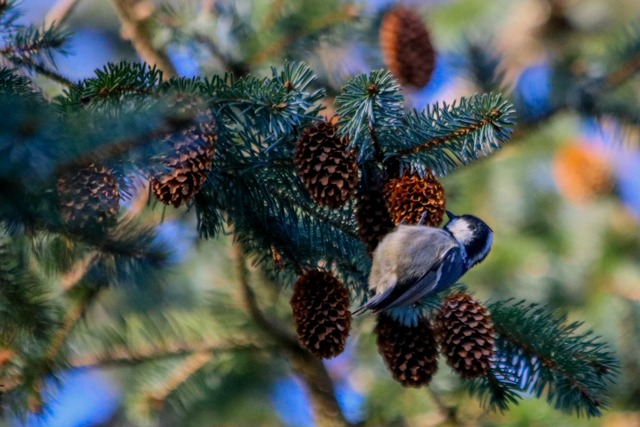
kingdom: Animalia
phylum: Chordata
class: Aves
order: Passeriformes
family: Paridae
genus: Periparus
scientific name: Periparus ater
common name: Sortmejse
